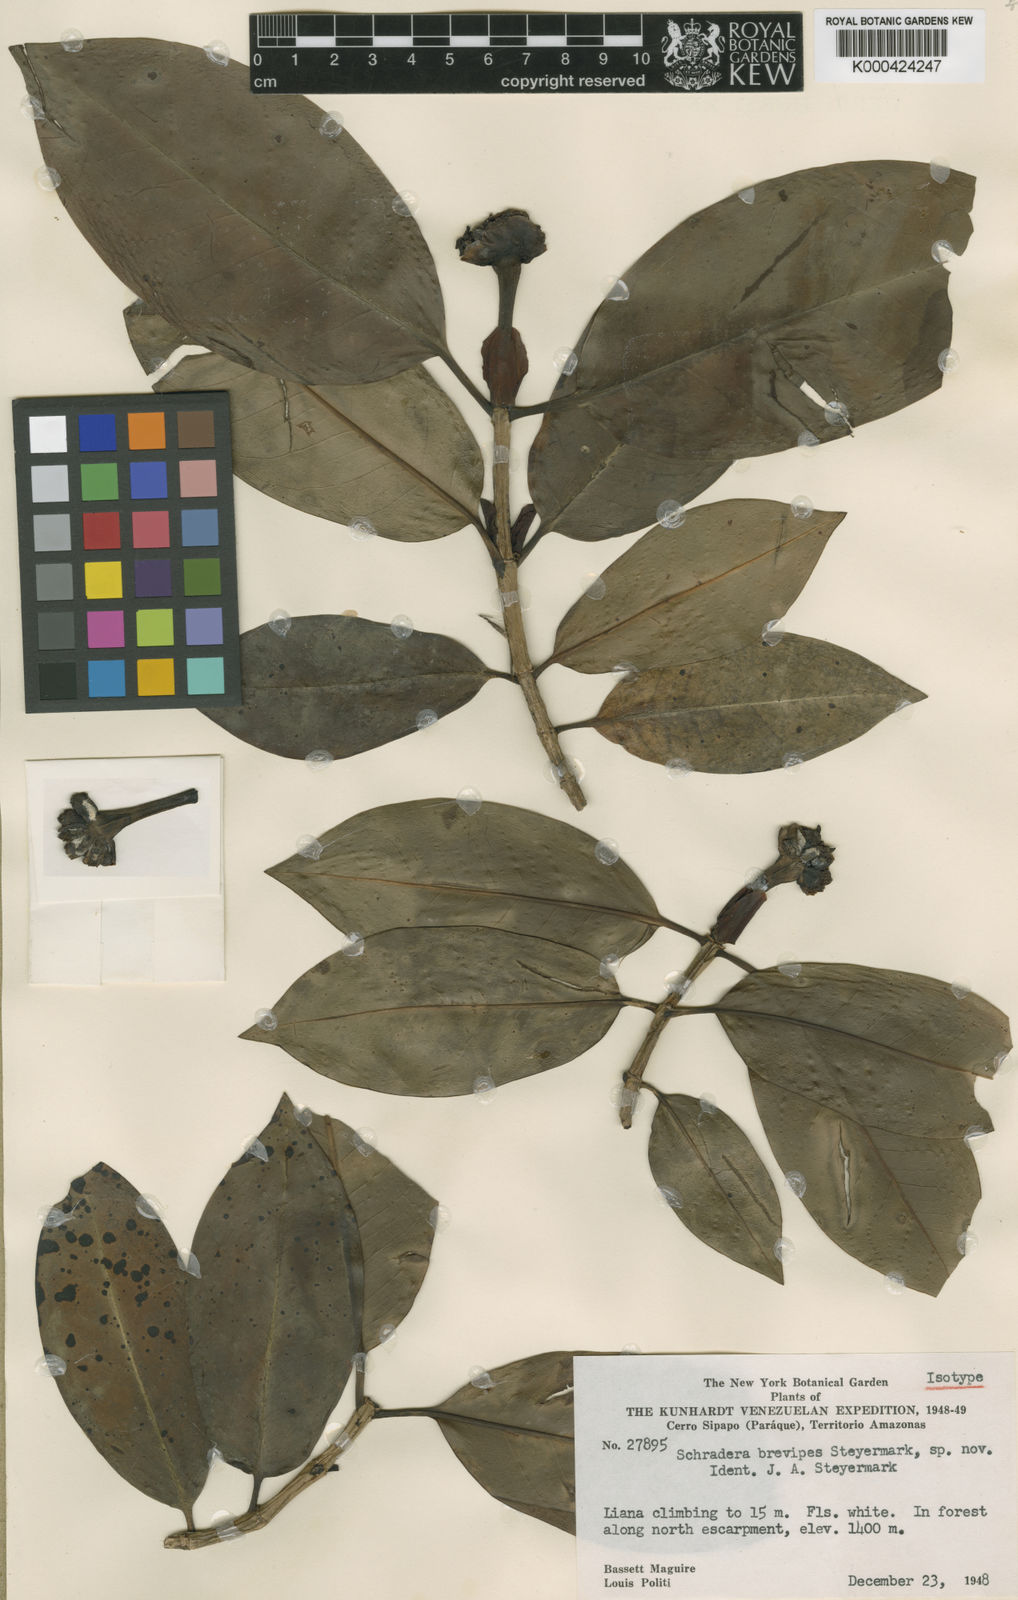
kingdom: Plantae
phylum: Tracheophyta
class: Magnoliopsida
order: Gentianales
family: Rubiaceae
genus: Schradera
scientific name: Schradera brevipes
